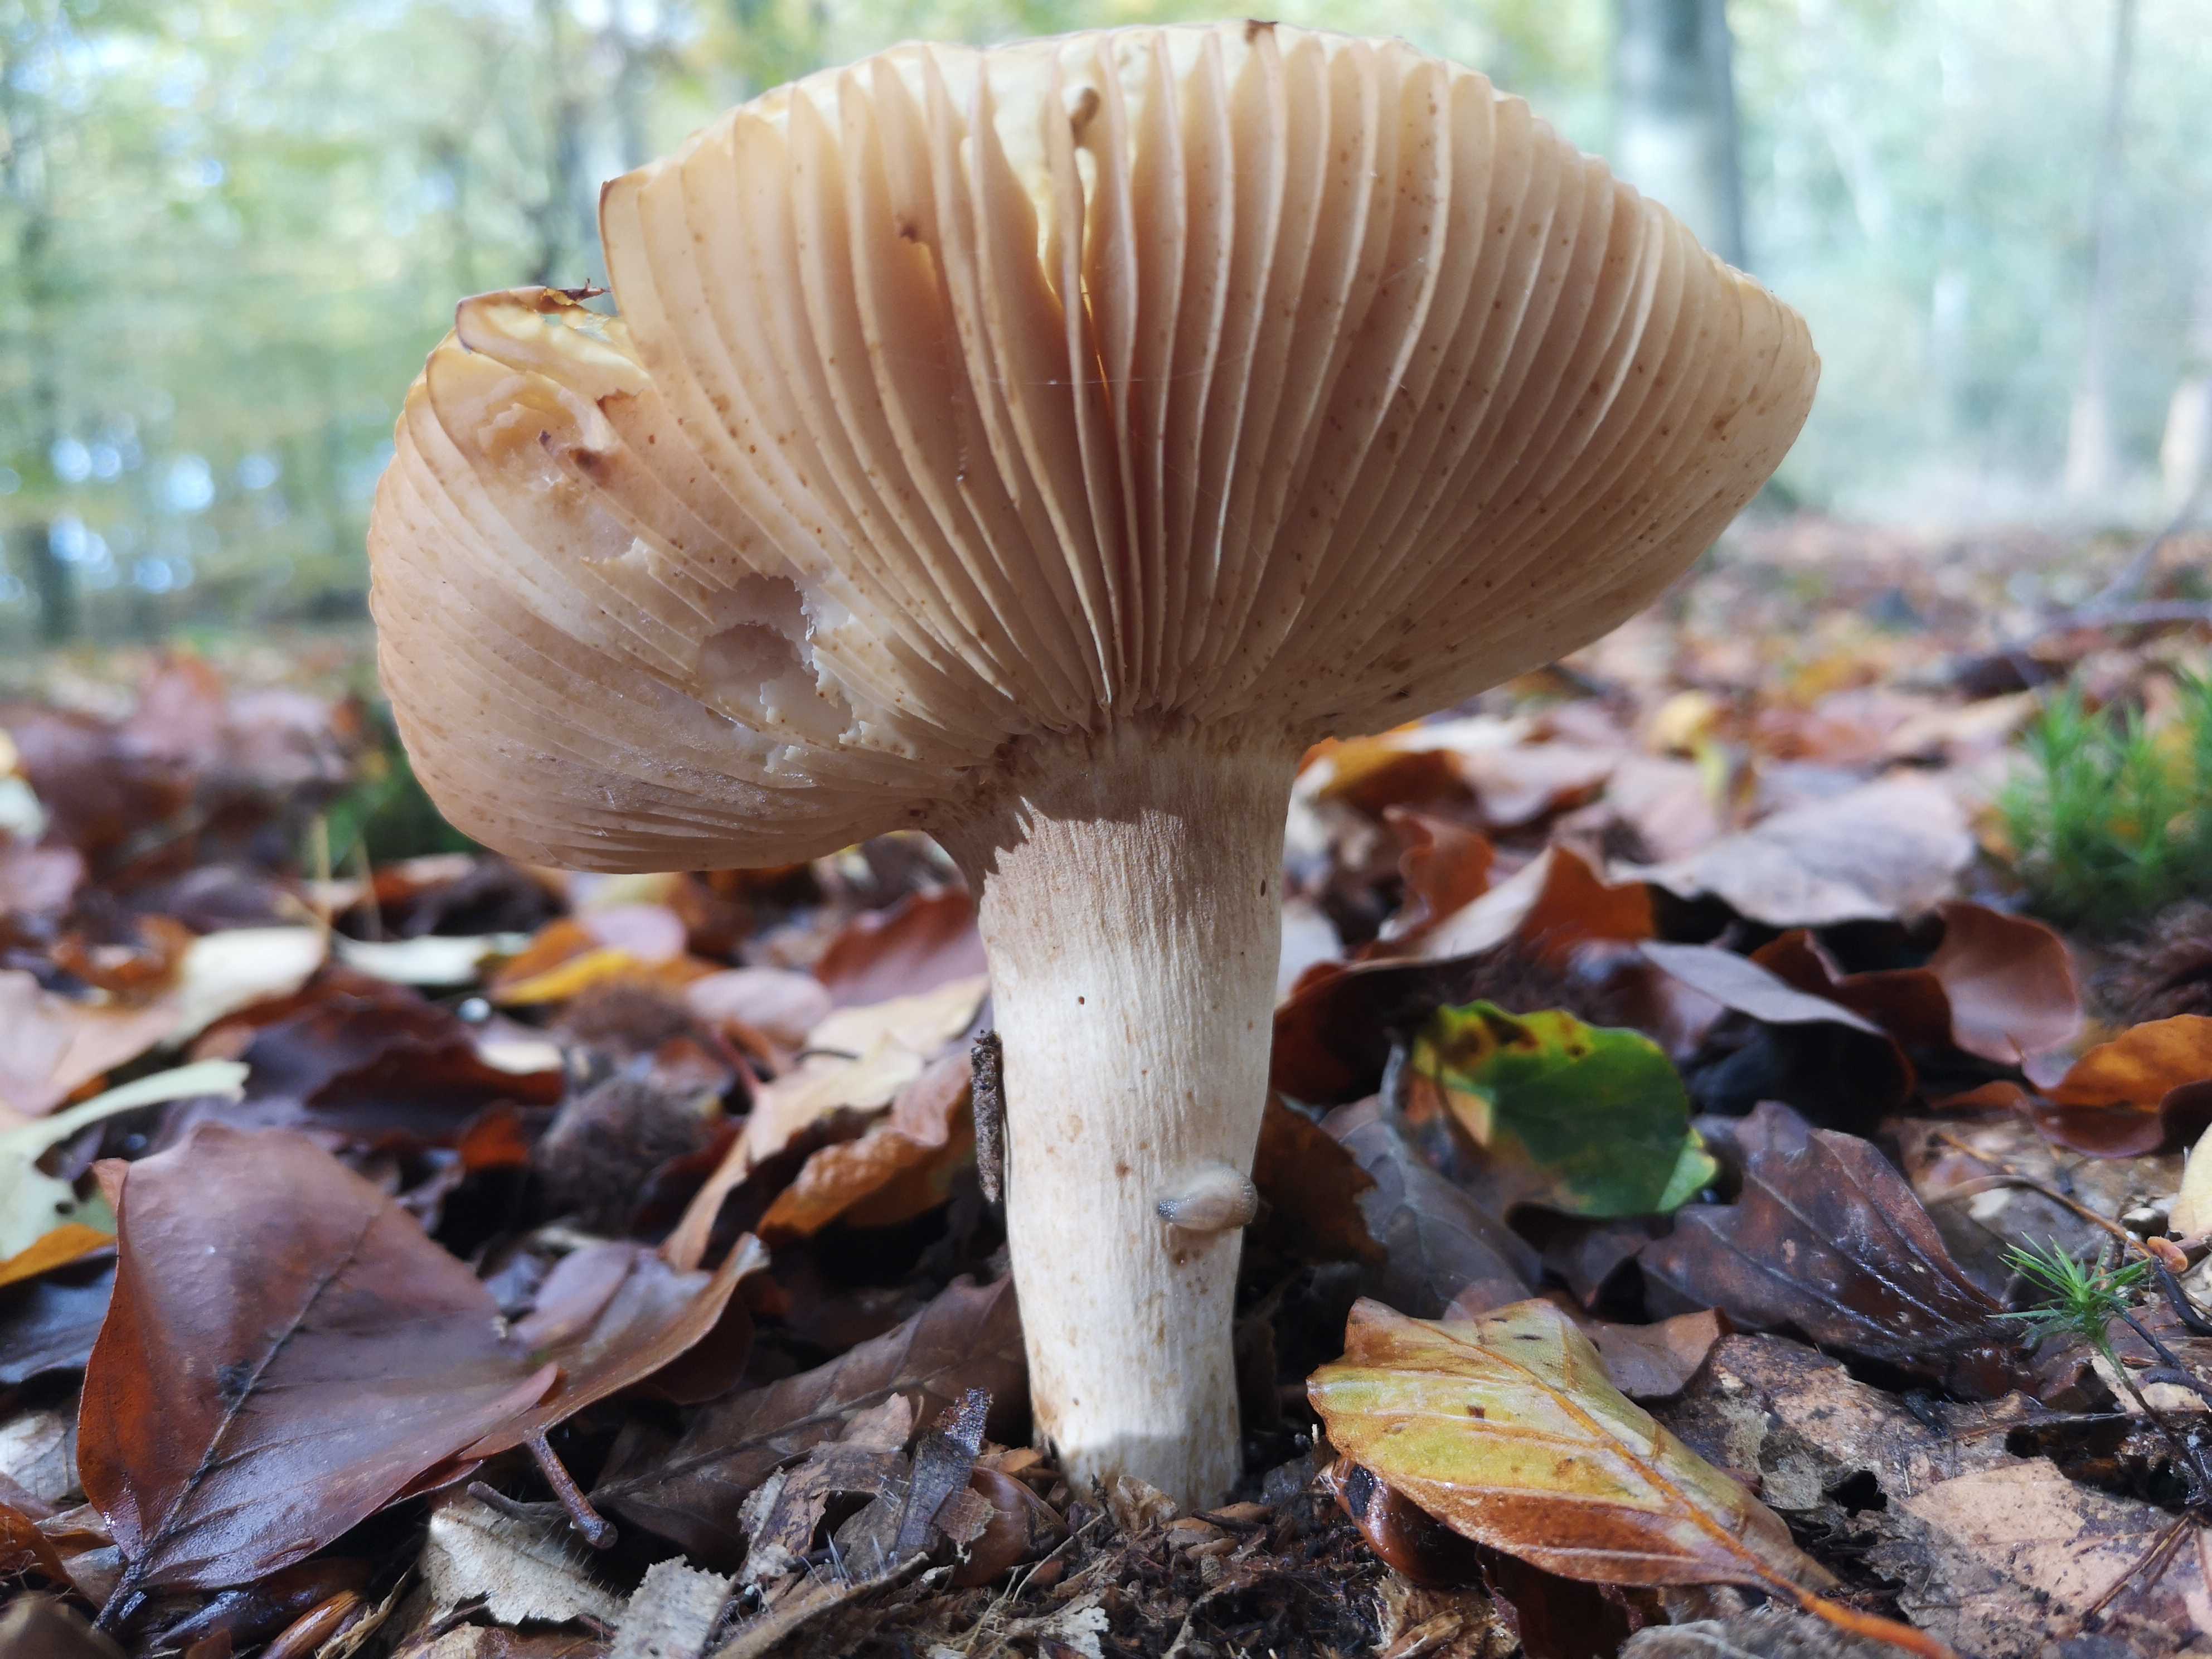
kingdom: Fungi
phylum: Basidiomycota
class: Agaricomycetes
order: Russulales
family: Russulaceae
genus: Russula
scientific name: Russula
